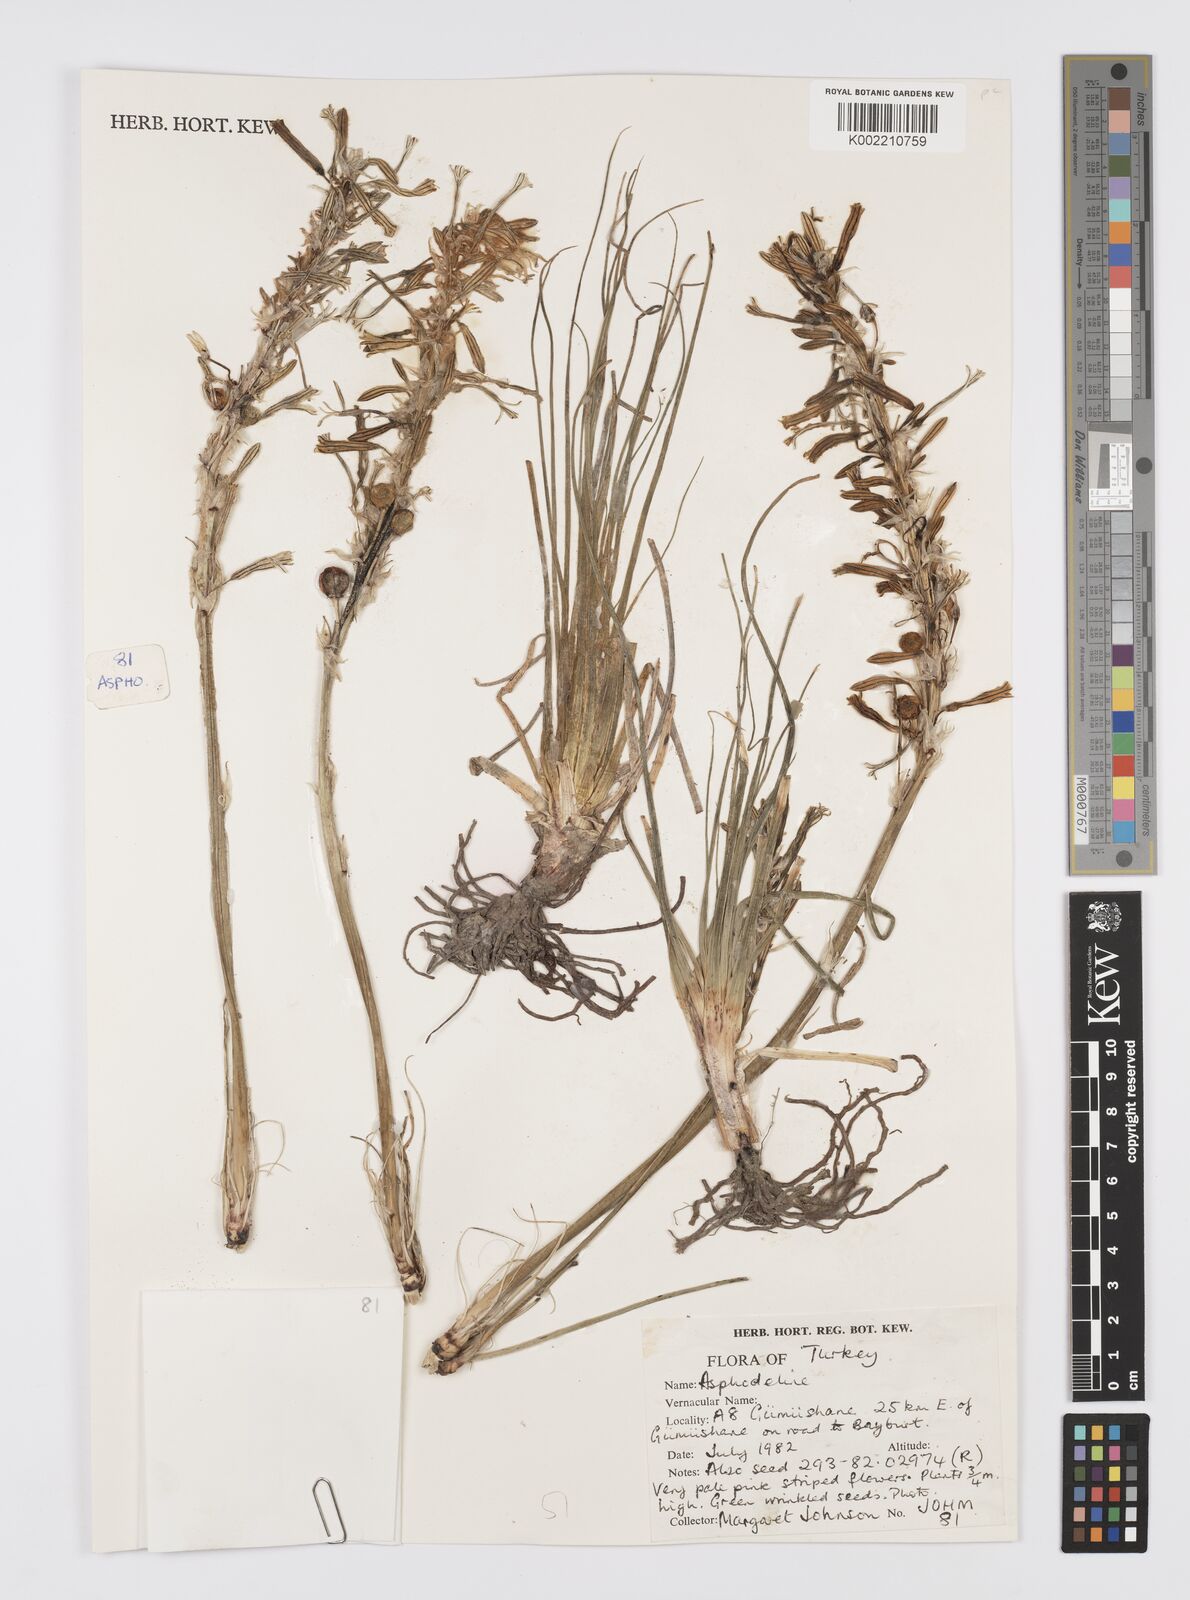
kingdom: Plantae
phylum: Tracheophyta
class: Liliopsida
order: Asparagales
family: Asphodelaceae
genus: Asphodeline
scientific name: Asphodeline
